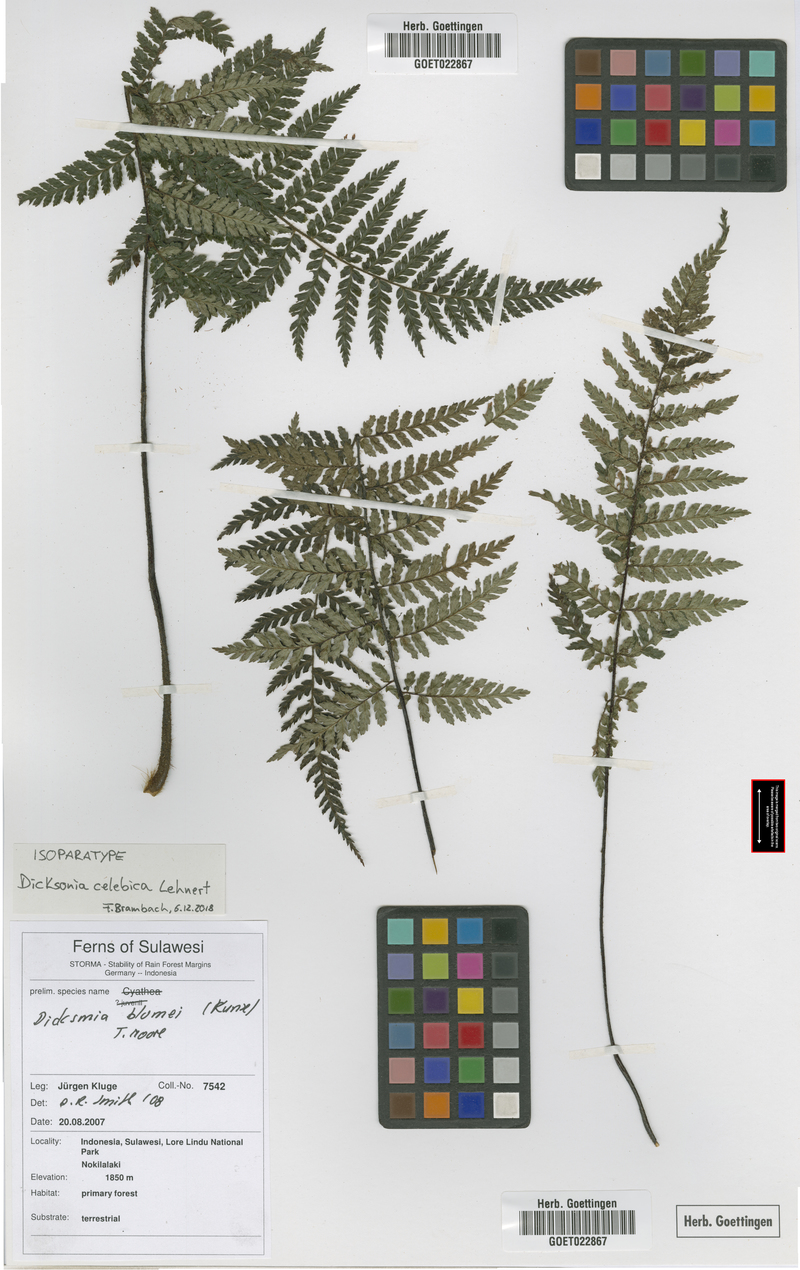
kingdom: Plantae
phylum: Tracheophyta
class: Polypodiopsida
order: Cyatheales
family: Dicksoniaceae
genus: Dicksonia
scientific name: Dicksonia celebica
